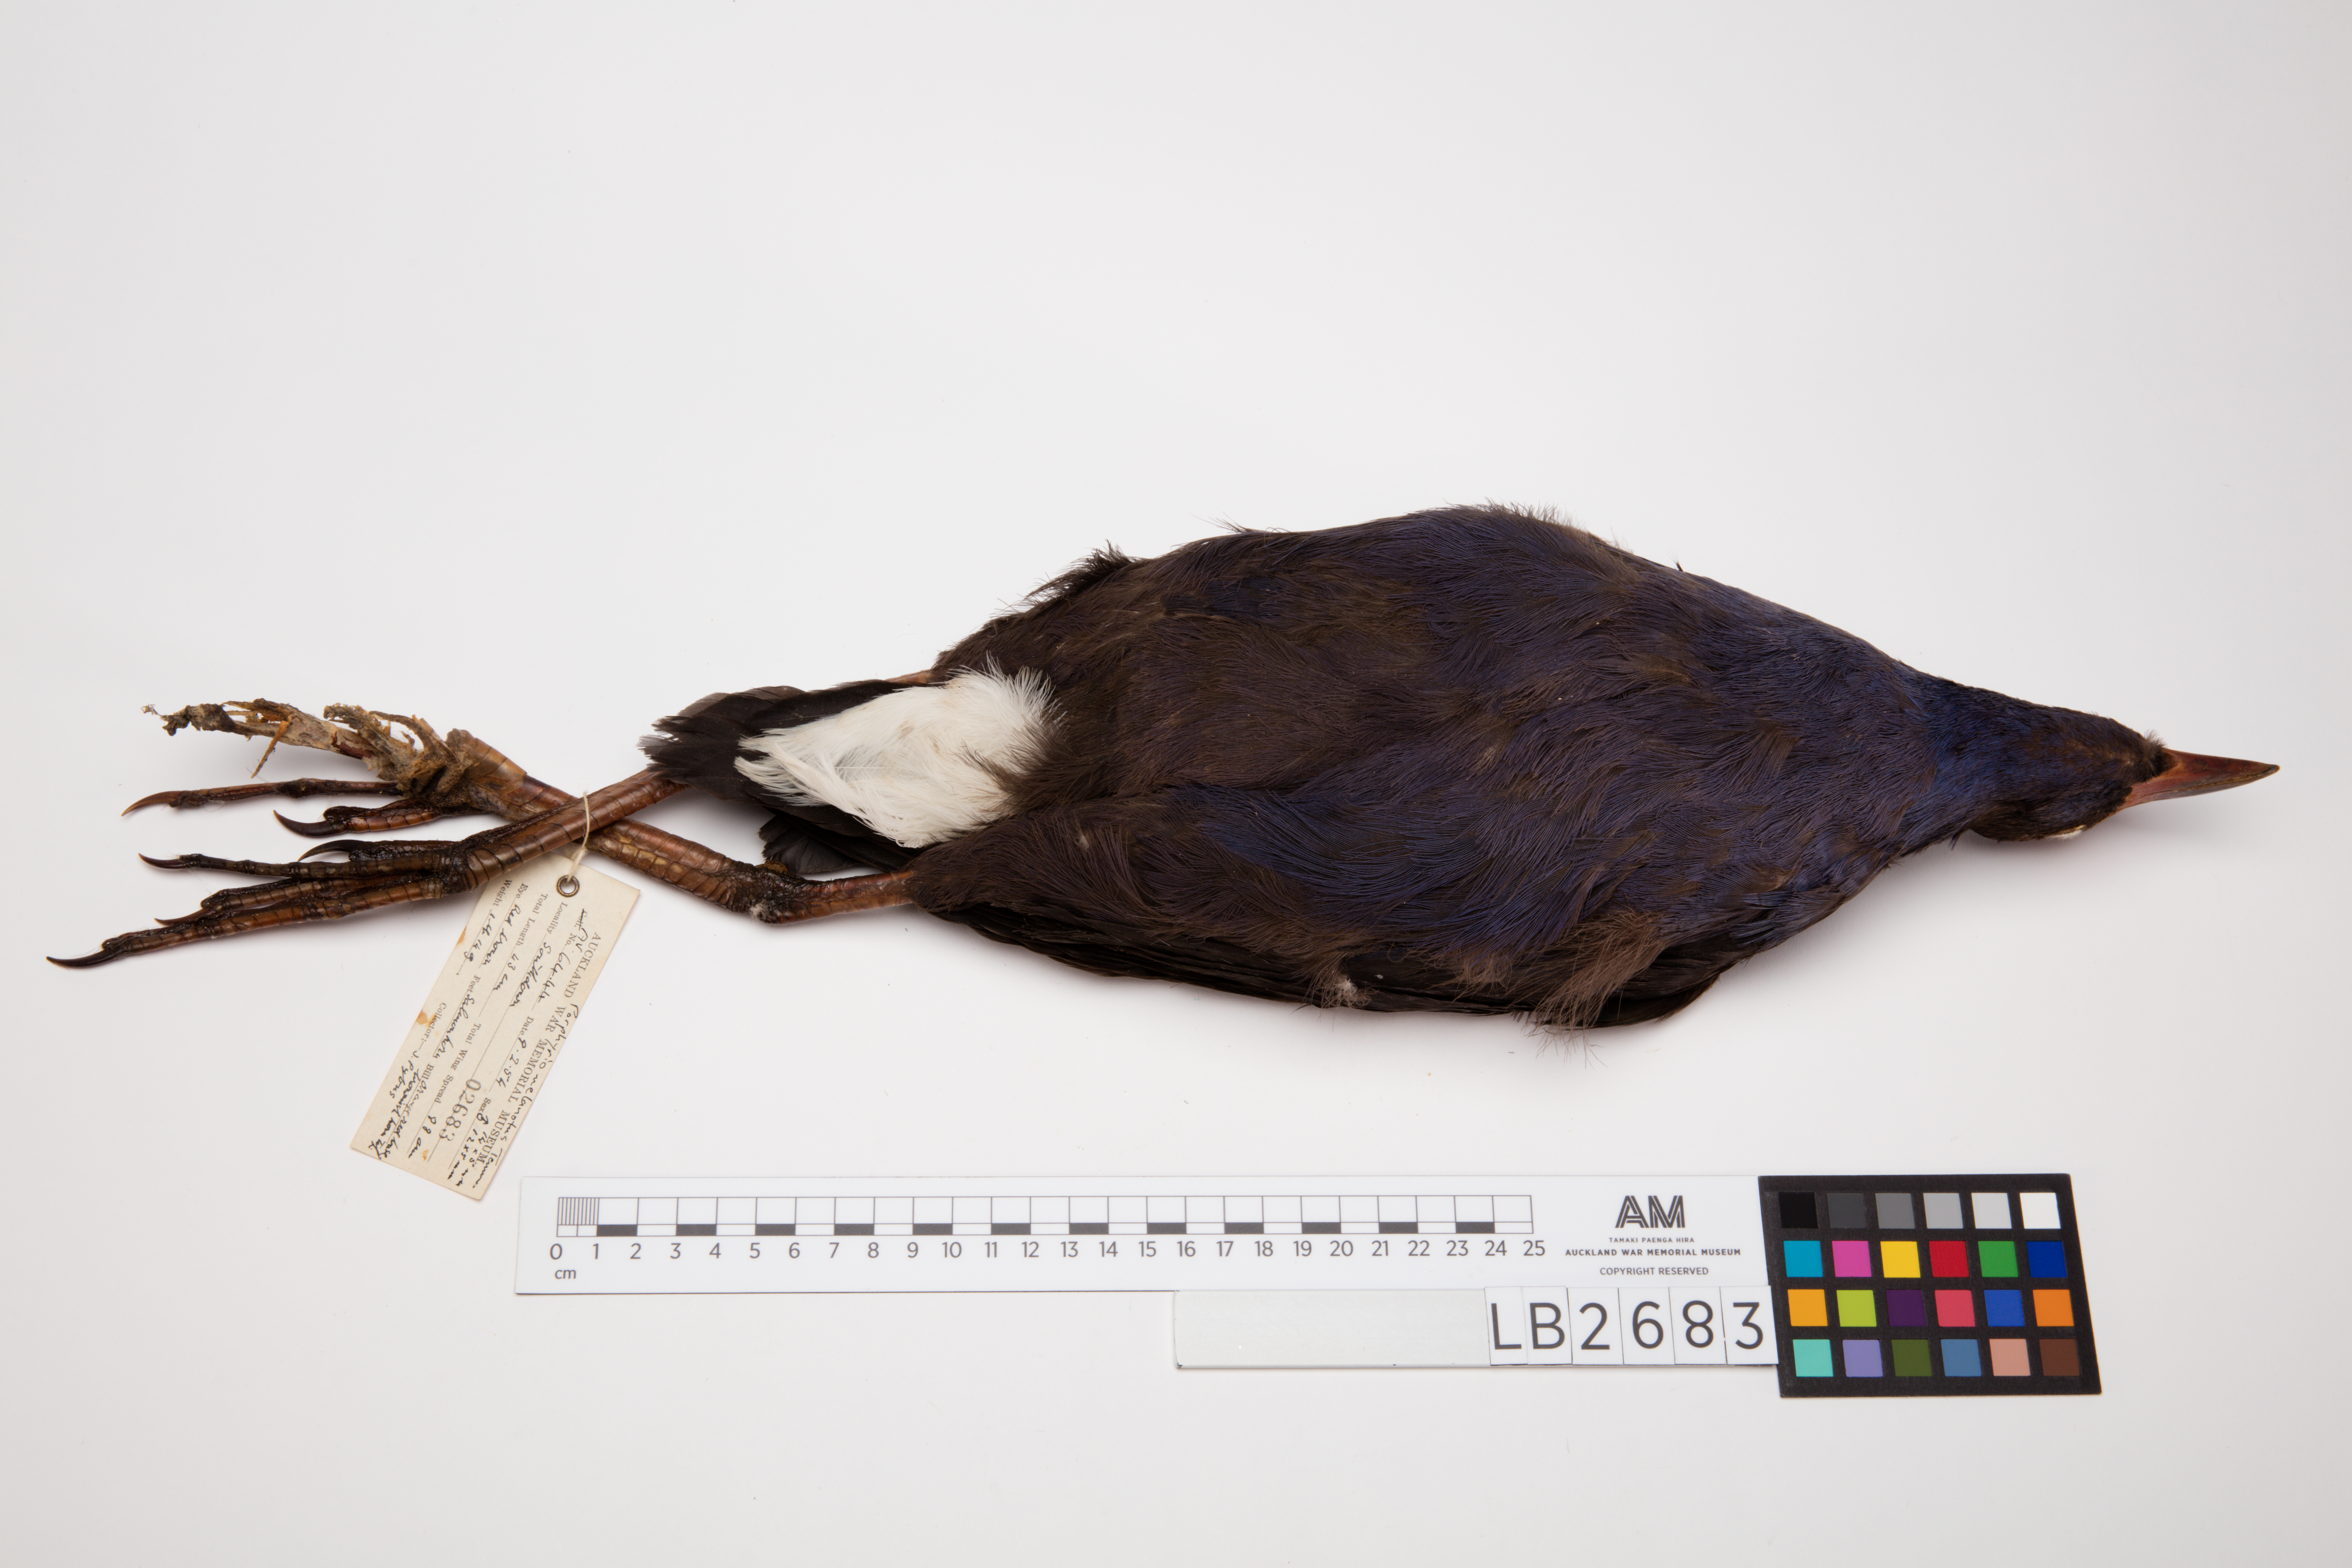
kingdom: Animalia
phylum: Chordata
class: Aves
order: Gruiformes
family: Rallidae
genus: Porphyrio
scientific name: Porphyrio melanotus
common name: Australasian swamphen
